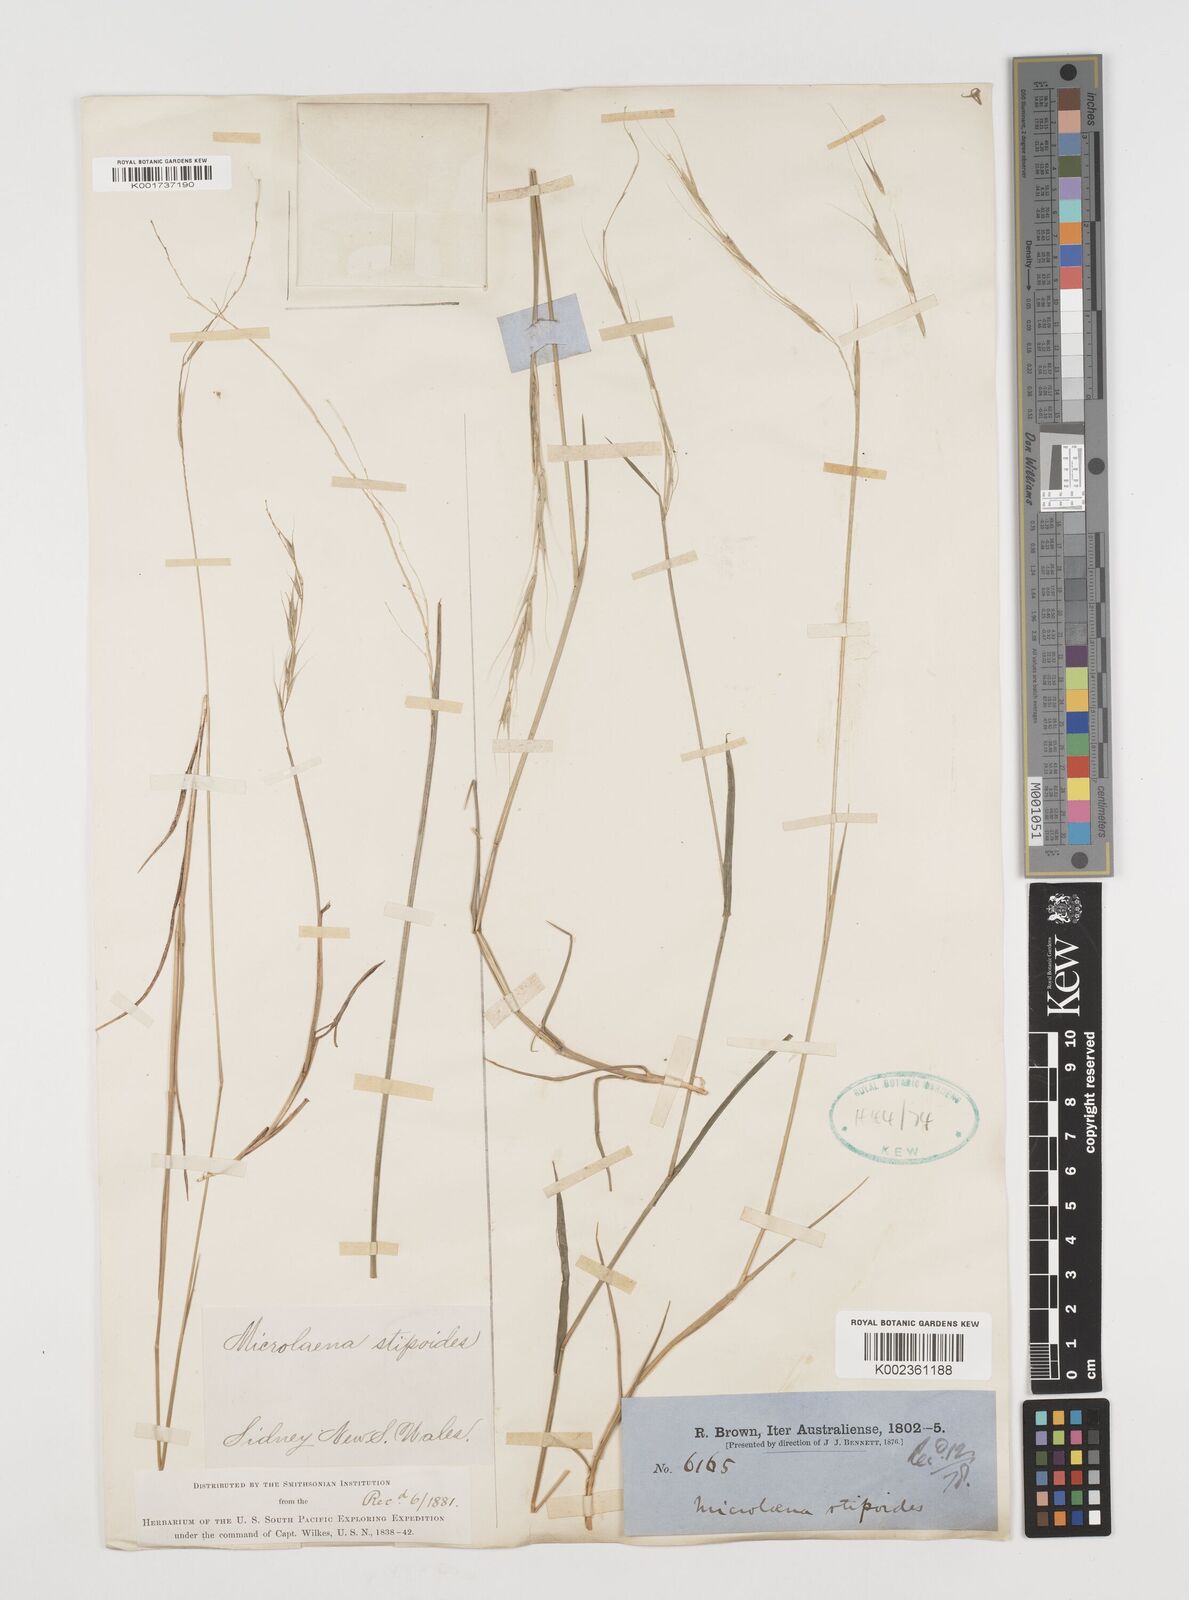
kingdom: Plantae
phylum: Tracheophyta
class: Liliopsida
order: Poales
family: Poaceae
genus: Microlaena
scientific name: Microlaena stipoides
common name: Meadow ricegrass
